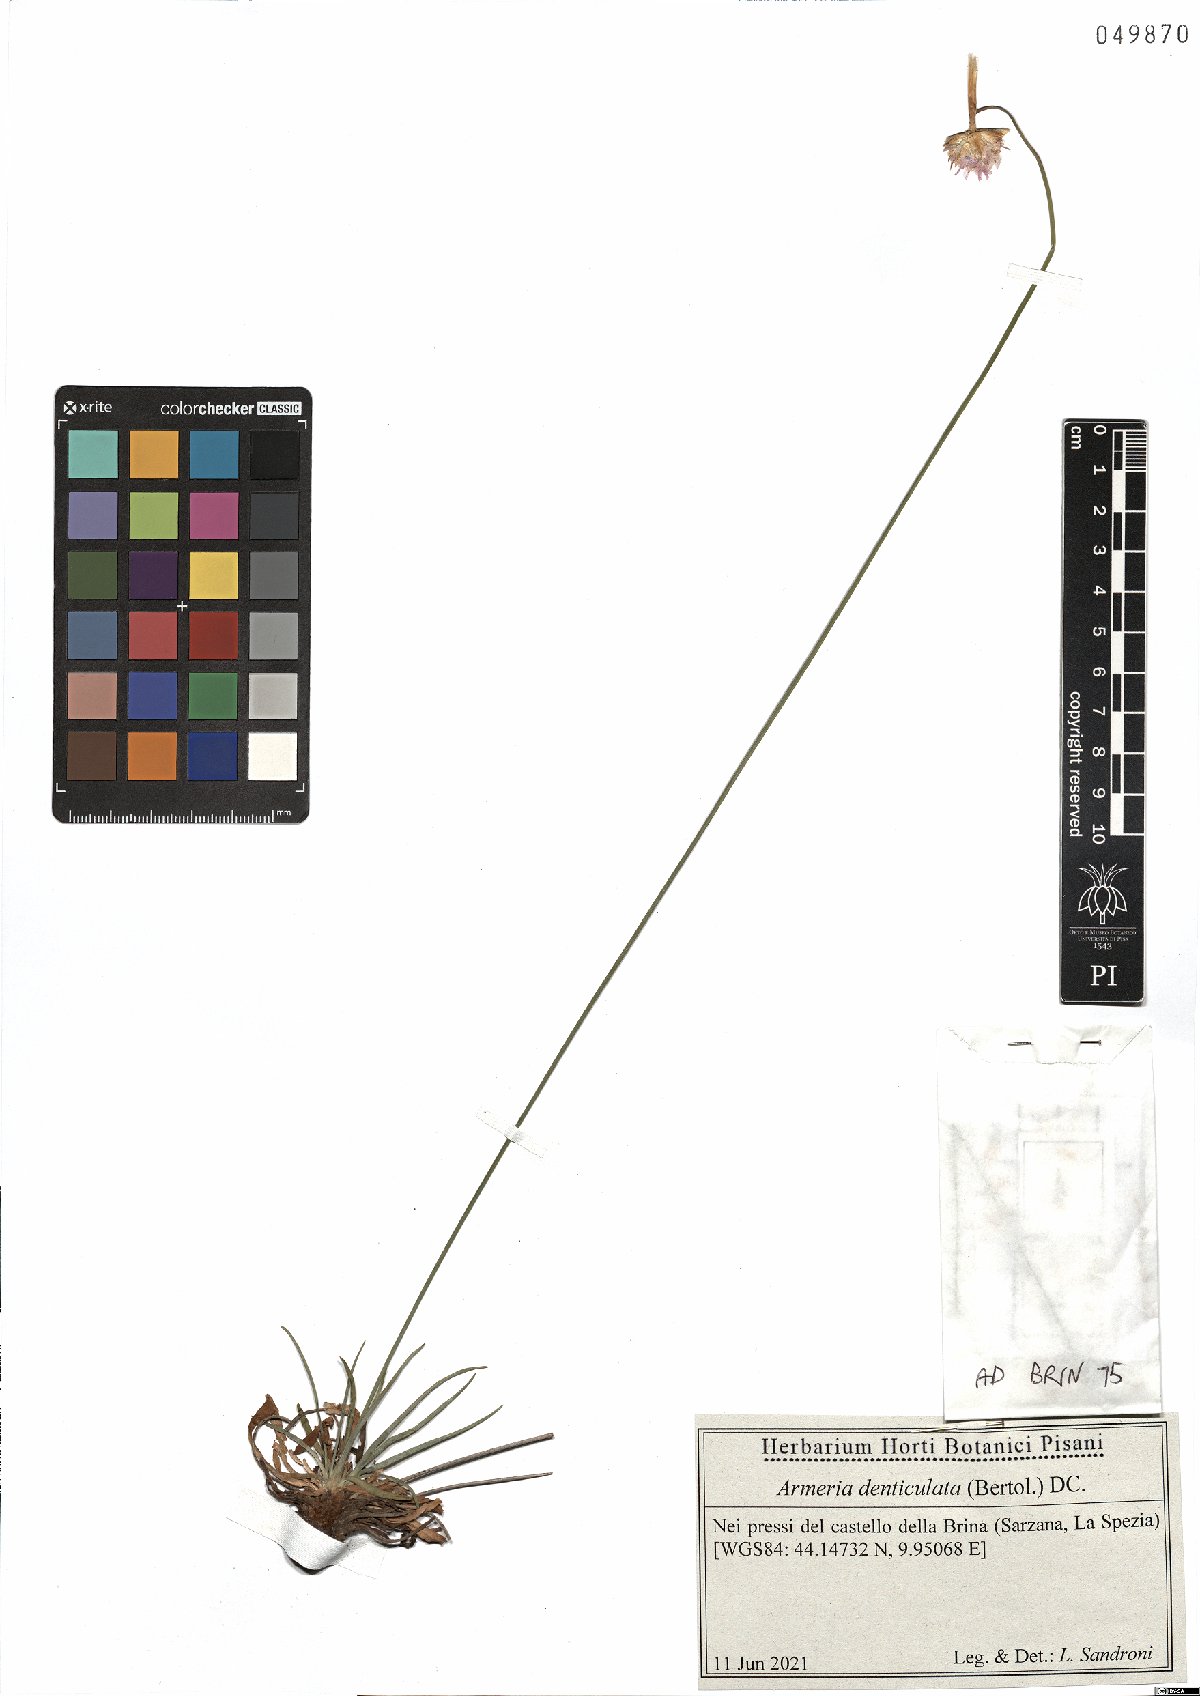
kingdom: Plantae
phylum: Tracheophyta
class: Magnoliopsida
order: Caryophyllales
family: Plumbaginaceae
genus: Armeria
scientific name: Armeria denticulata
